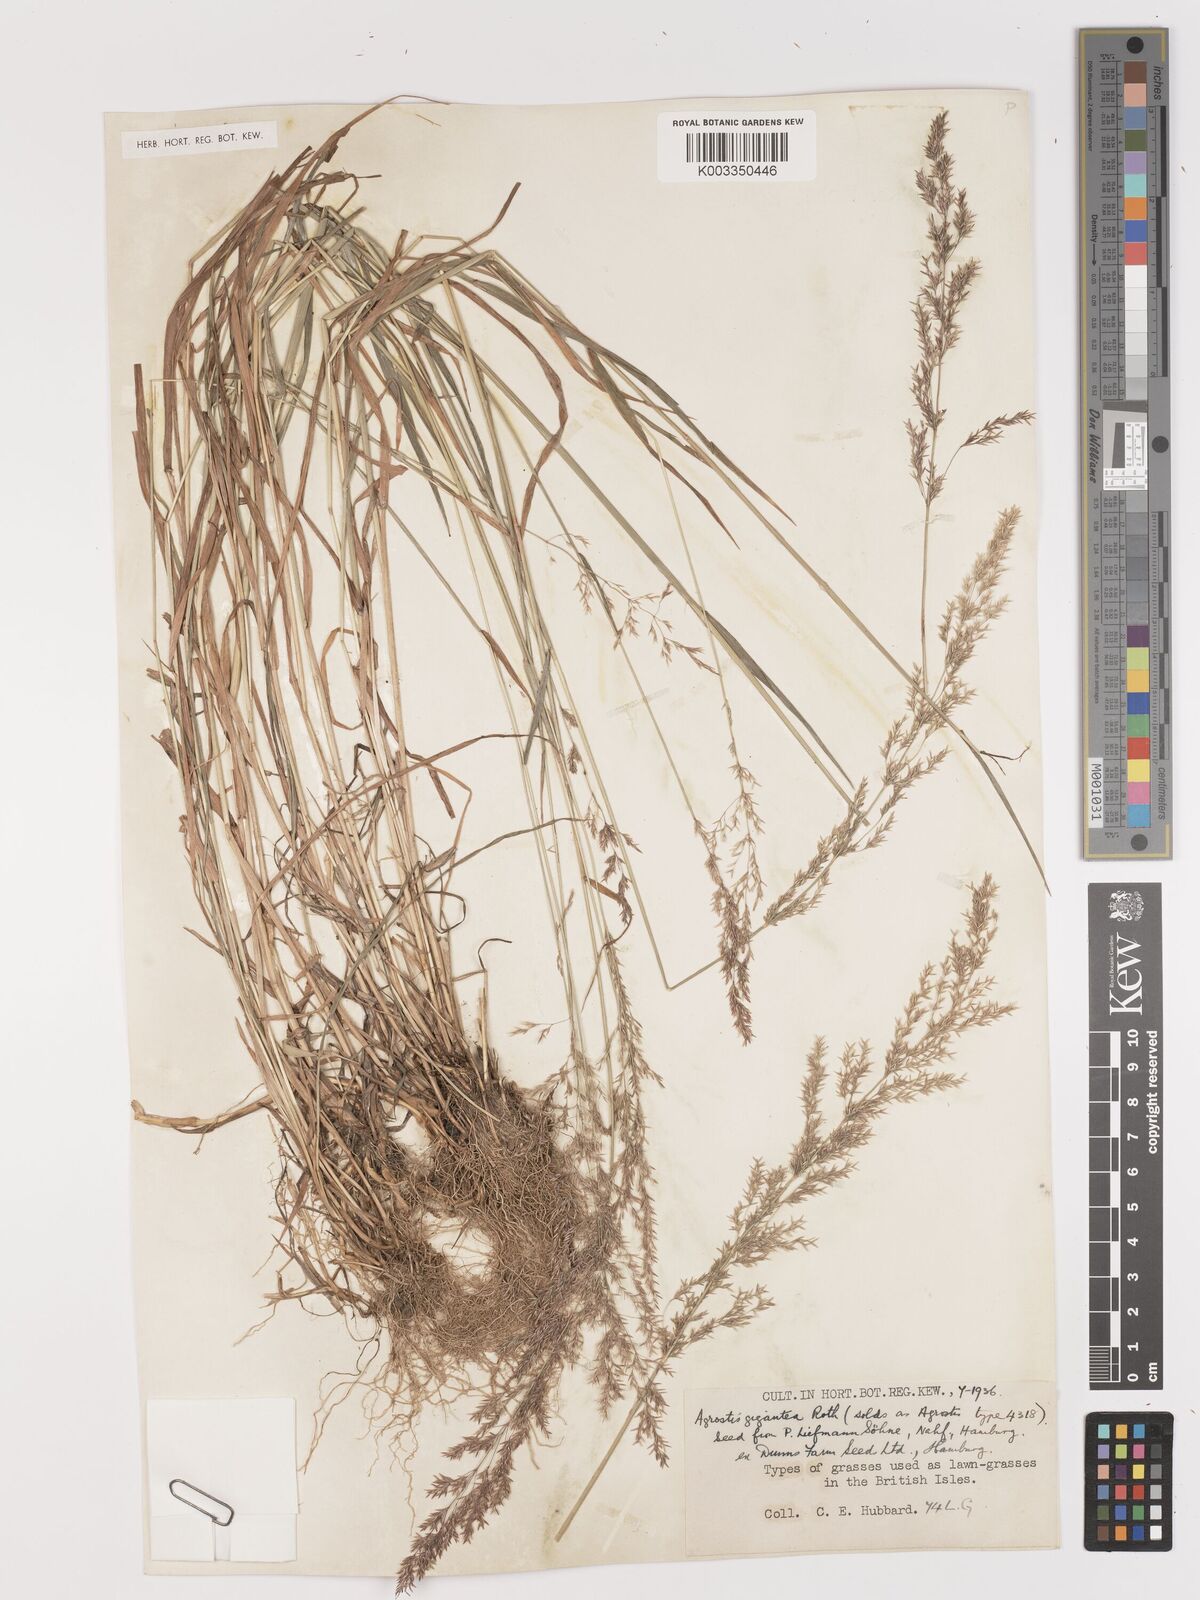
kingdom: Plantae
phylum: Tracheophyta
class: Liliopsida
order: Poales
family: Poaceae
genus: Agrostis
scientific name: Agrostis gigantea
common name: Black bent
